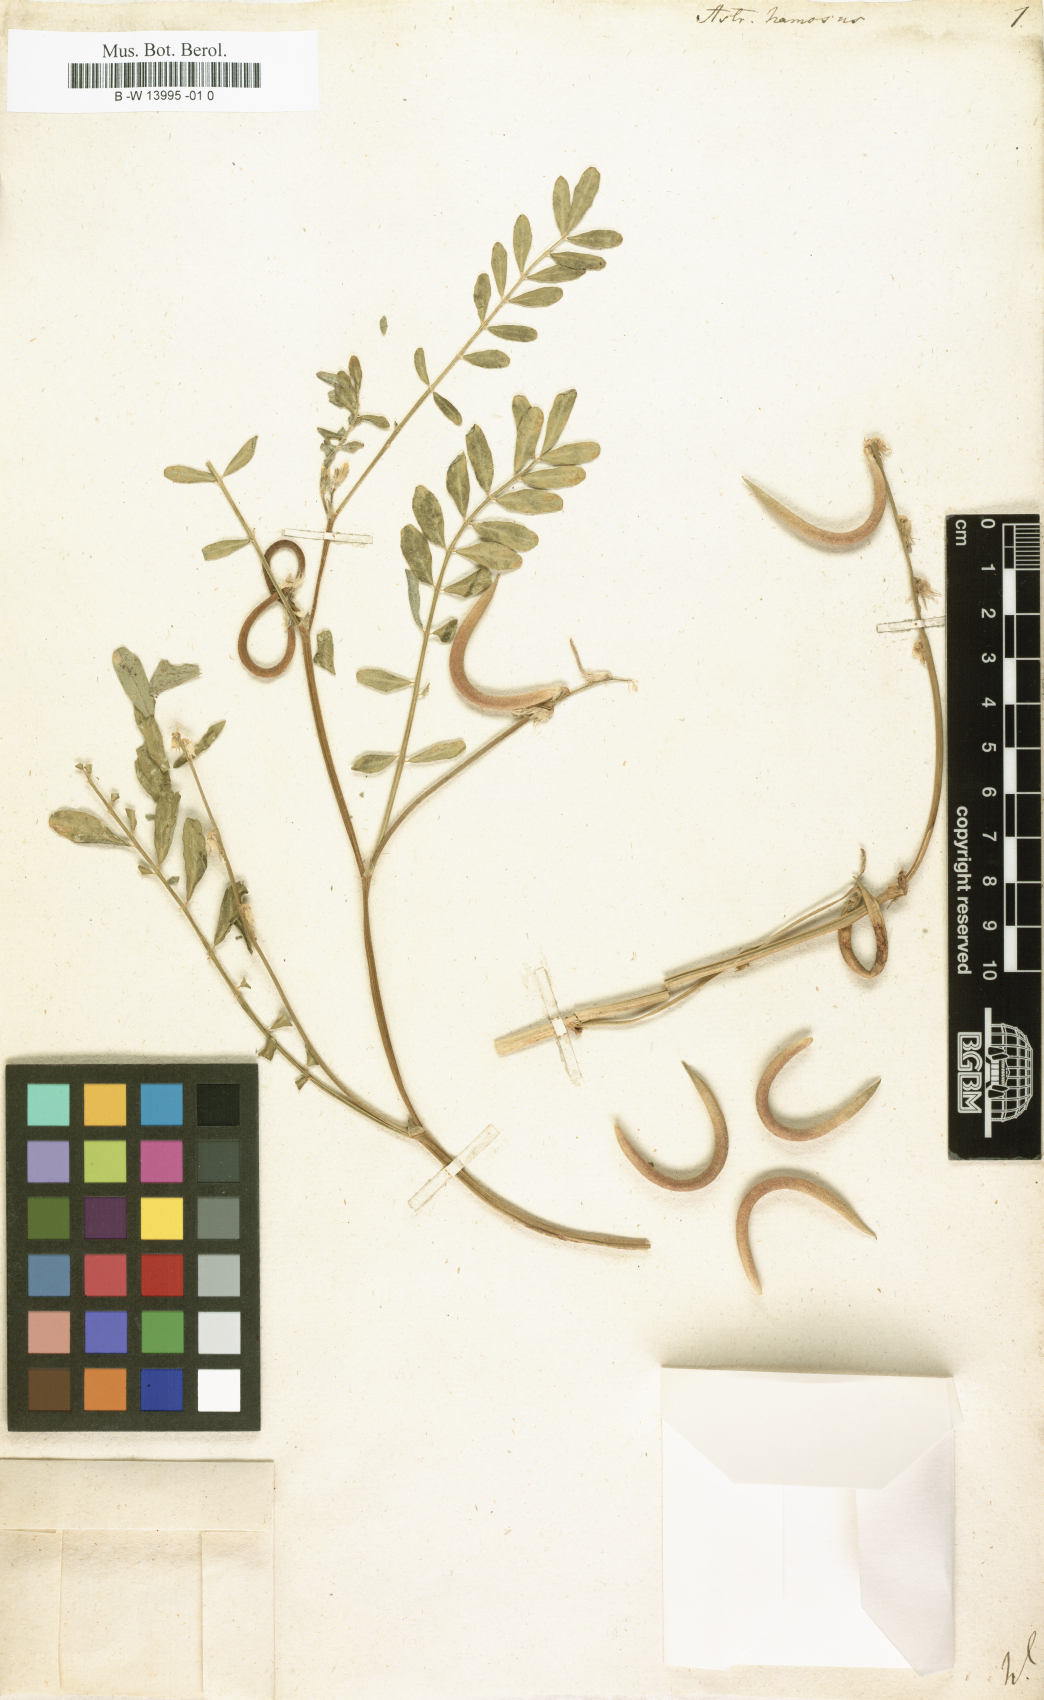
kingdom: Plantae
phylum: Tracheophyta
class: Magnoliopsida
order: Fabales
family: Fabaceae
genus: Astragalus
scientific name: Astragalus hamosus
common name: European milkvetch
